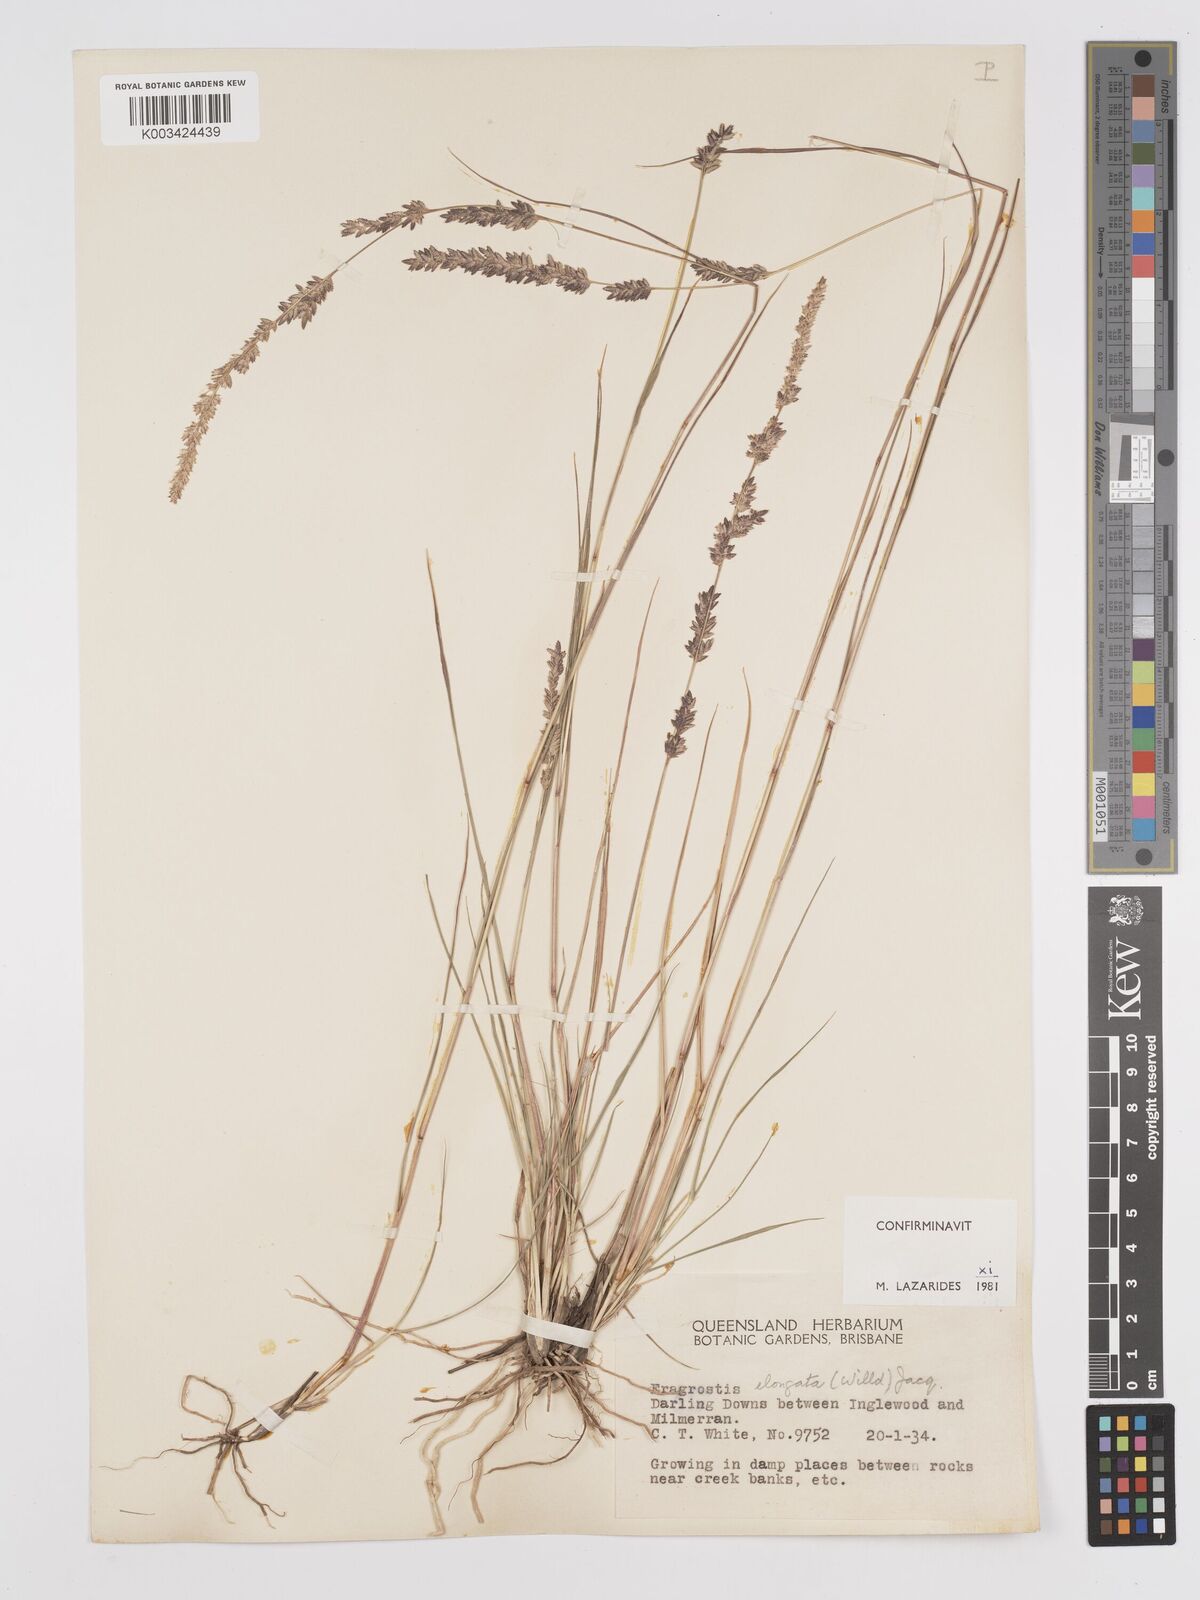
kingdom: Plantae
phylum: Tracheophyta
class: Liliopsida
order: Poales
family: Poaceae
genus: Eragrostis
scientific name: Eragrostis elongata
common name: Long lovegrass
